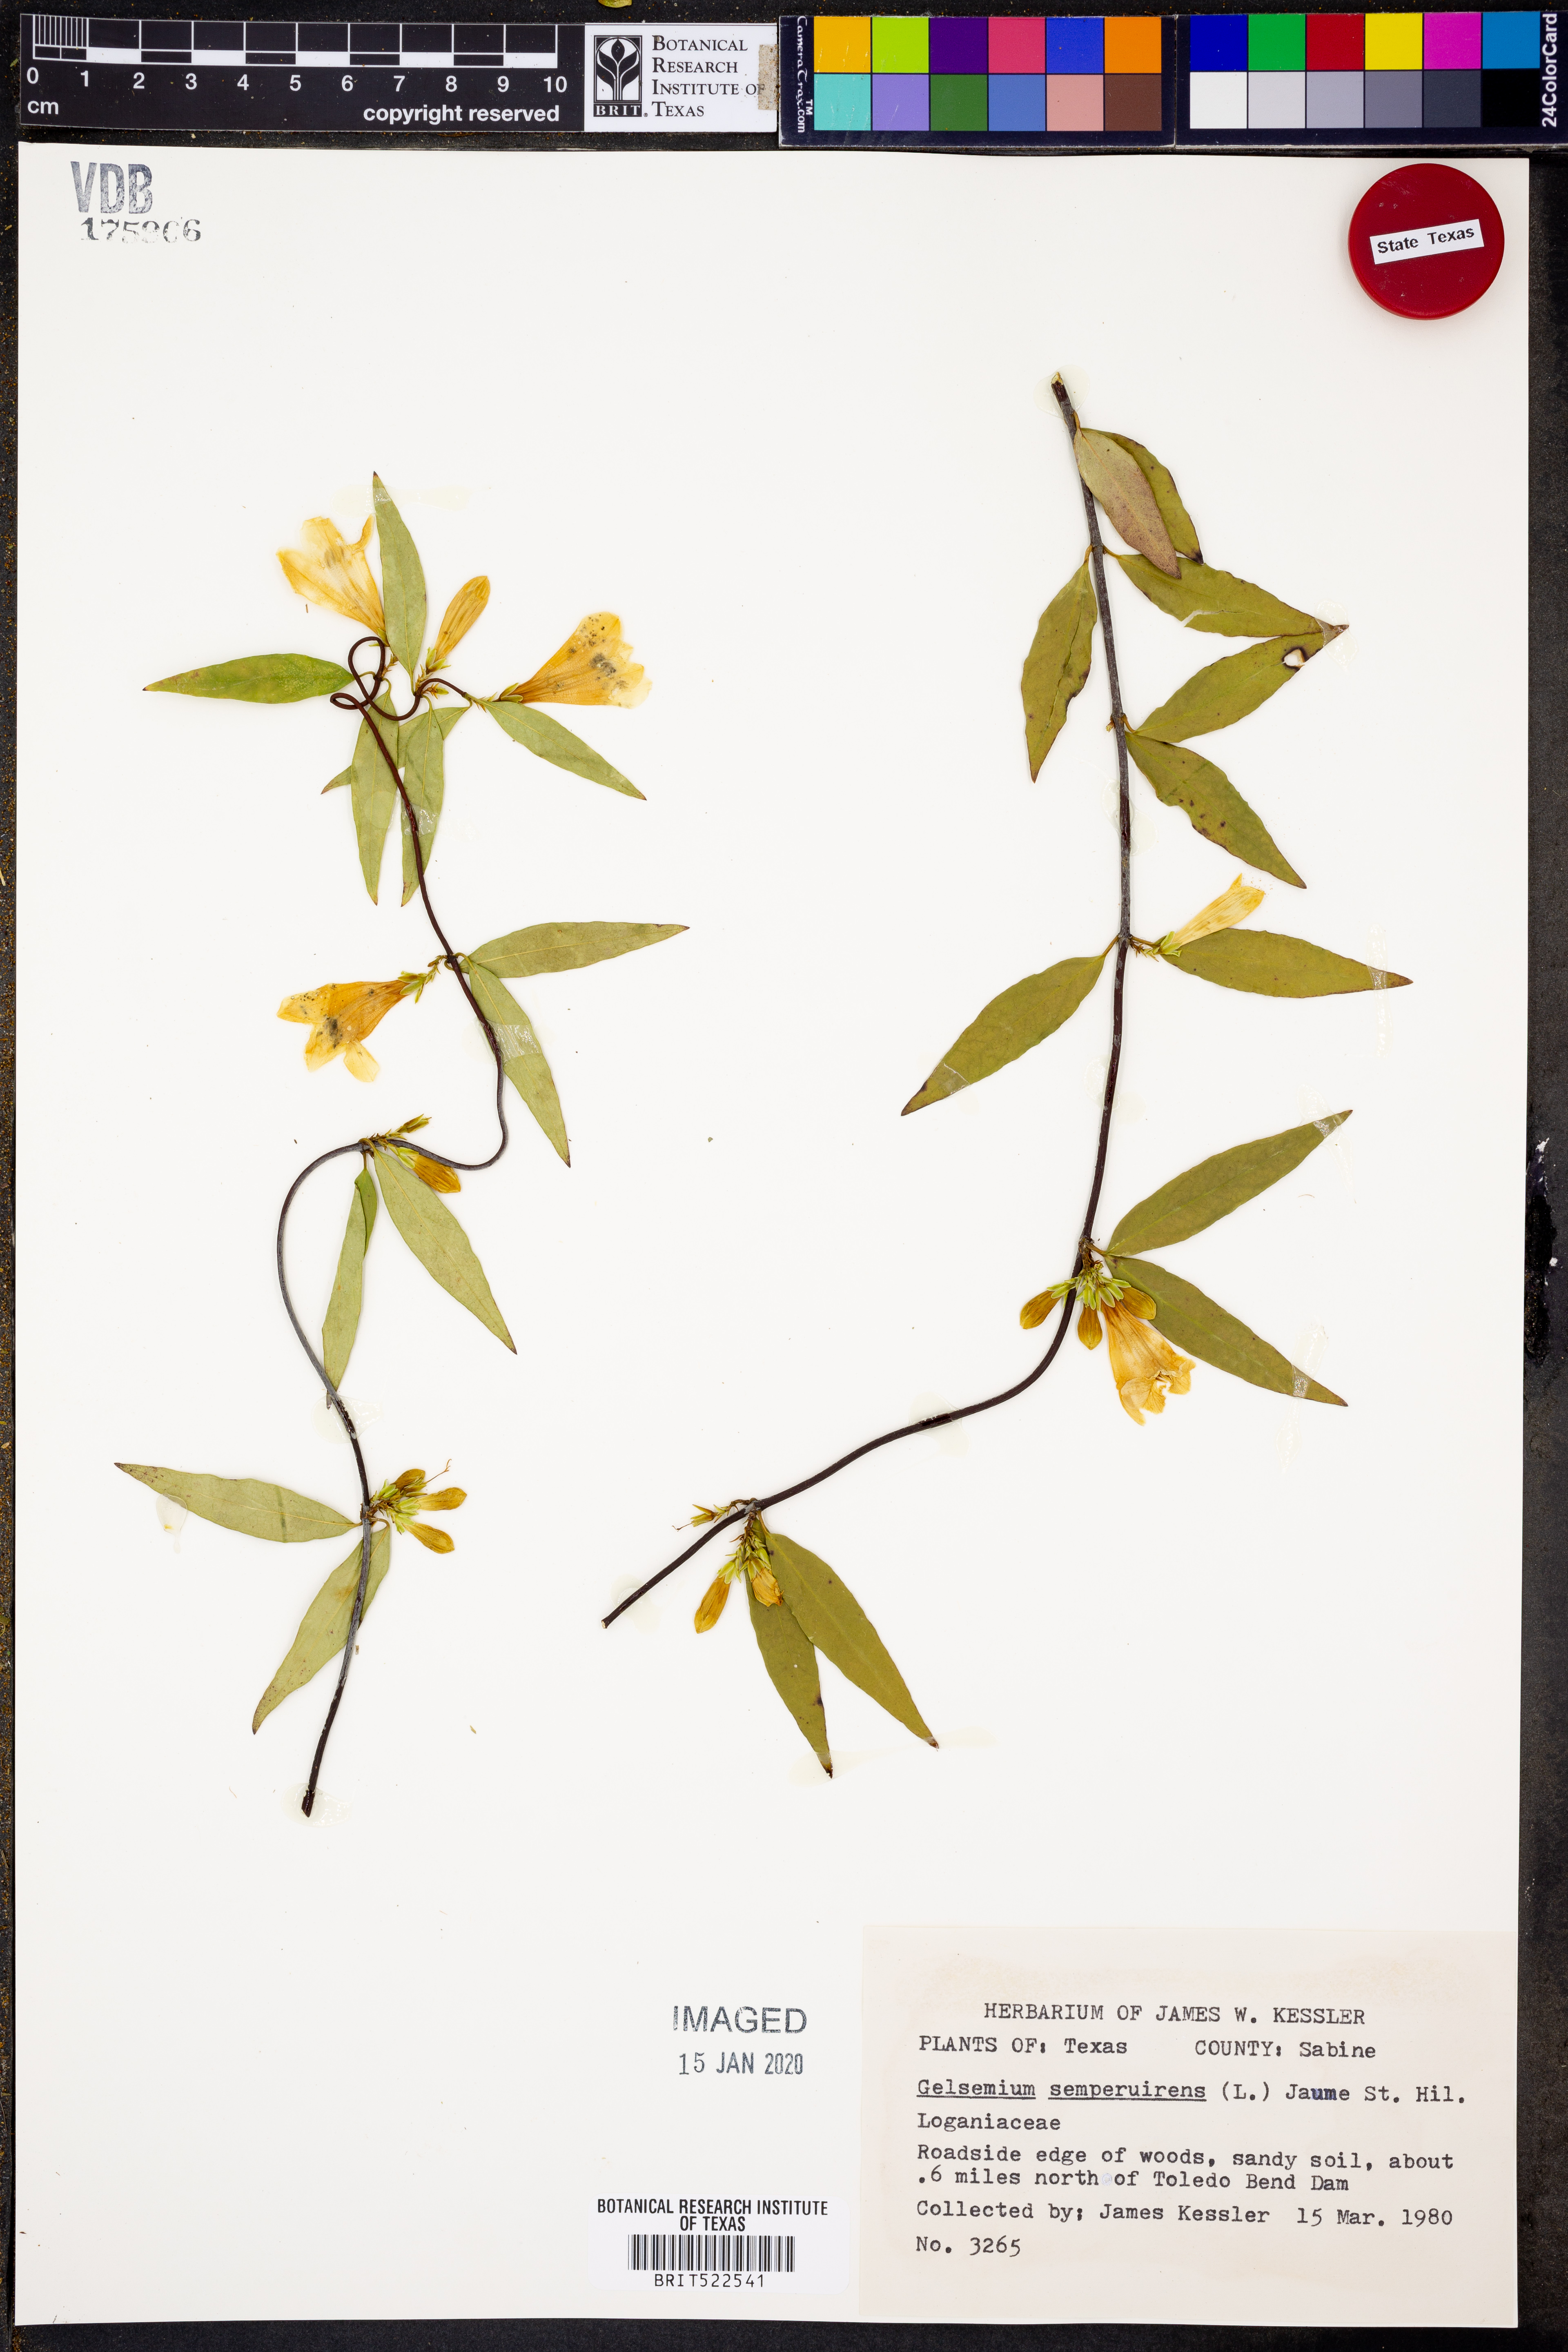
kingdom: Plantae
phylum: Tracheophyta
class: Magnoliopsida
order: Gentianales
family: Gelsemiaceae
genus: Gelsemium
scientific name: Gelsemium sempervirens
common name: Carolina-jasmine
